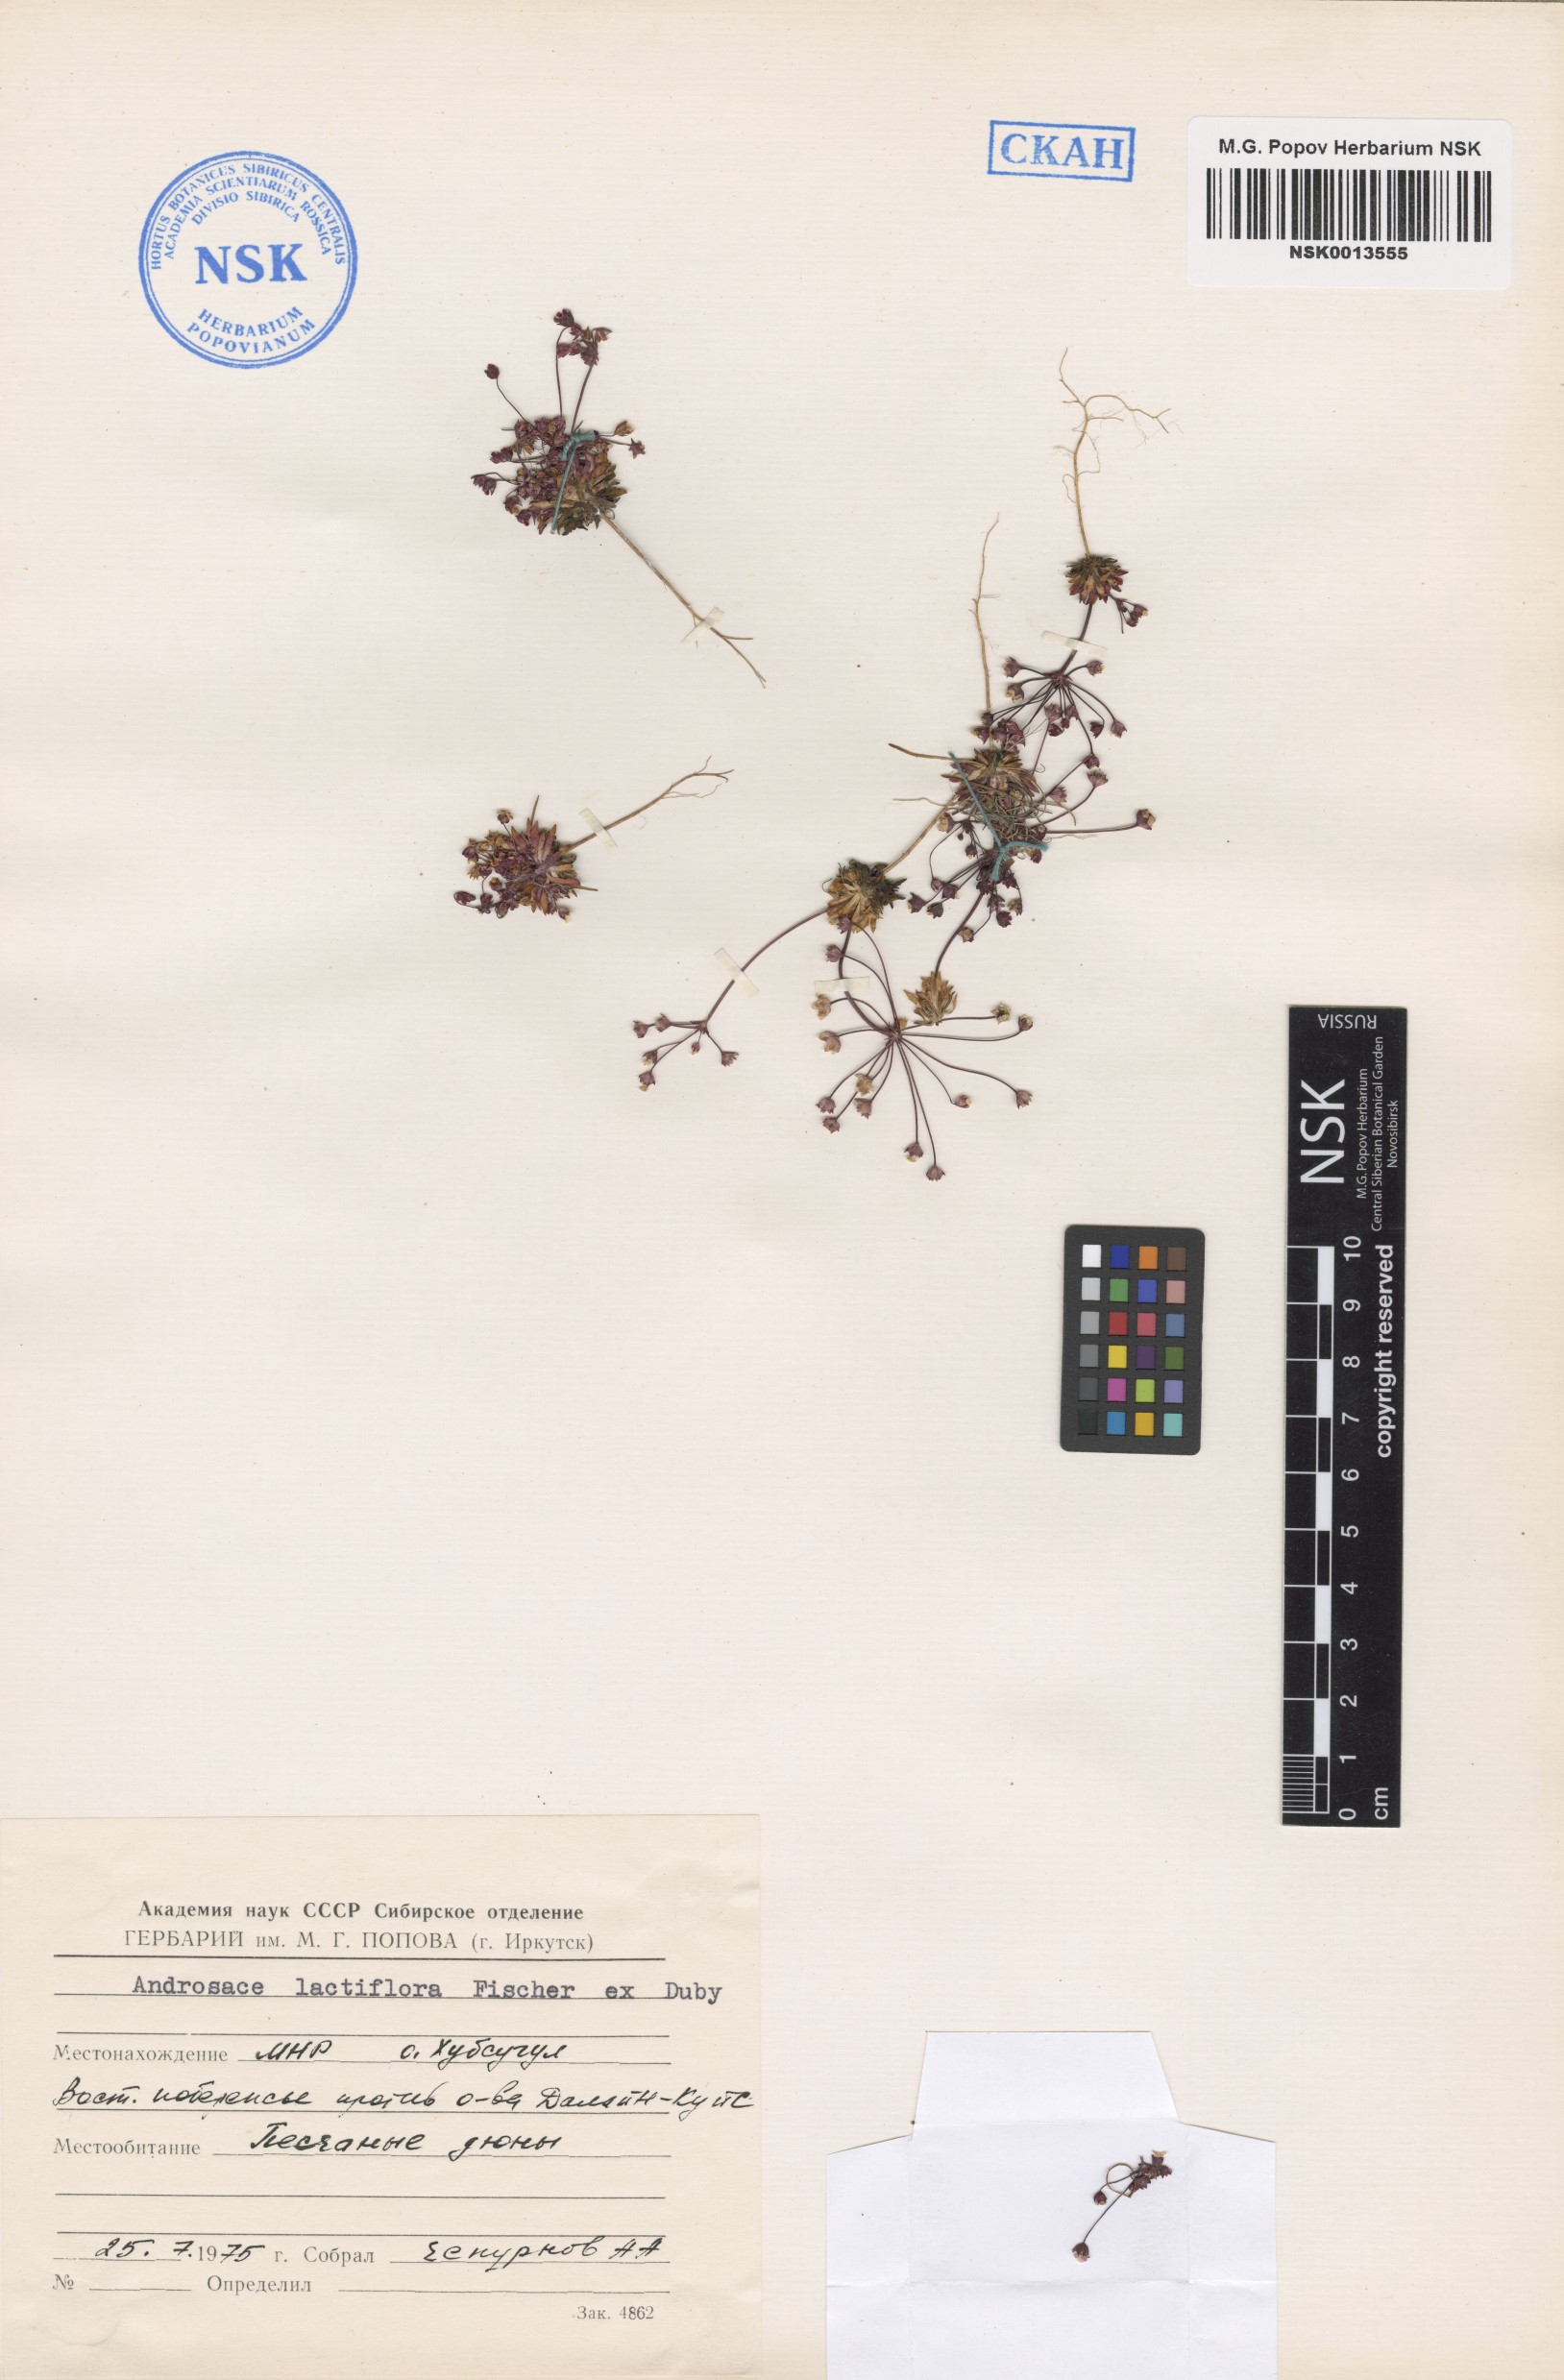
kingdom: Plantae
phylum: Tracheophyta
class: Magnoliopsida
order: Ericales
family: Primulaceae
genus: Androsace
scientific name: Androsace lactiflora
